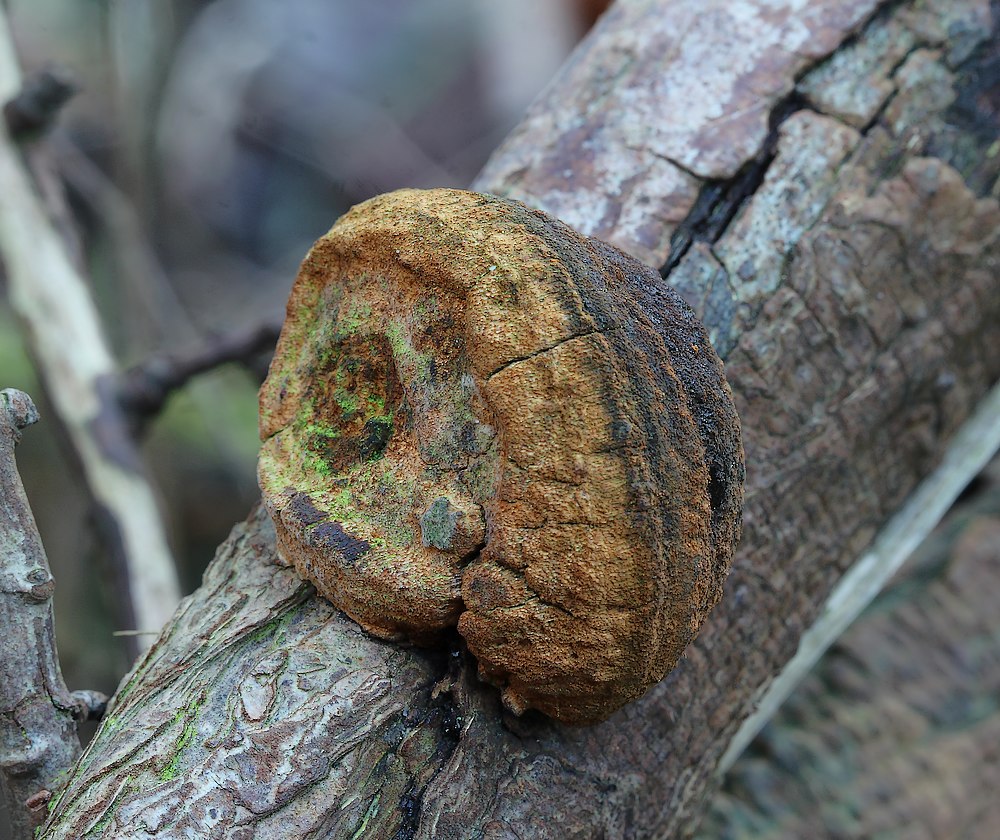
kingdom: Fungi
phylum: Basidiomycota
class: Agaricomycetes
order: Hymenochaetales
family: Hymenochaetaceae
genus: Fomitiporia
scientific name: Fomitiporia hippophaeicola
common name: havtorn-ildporesvamp
